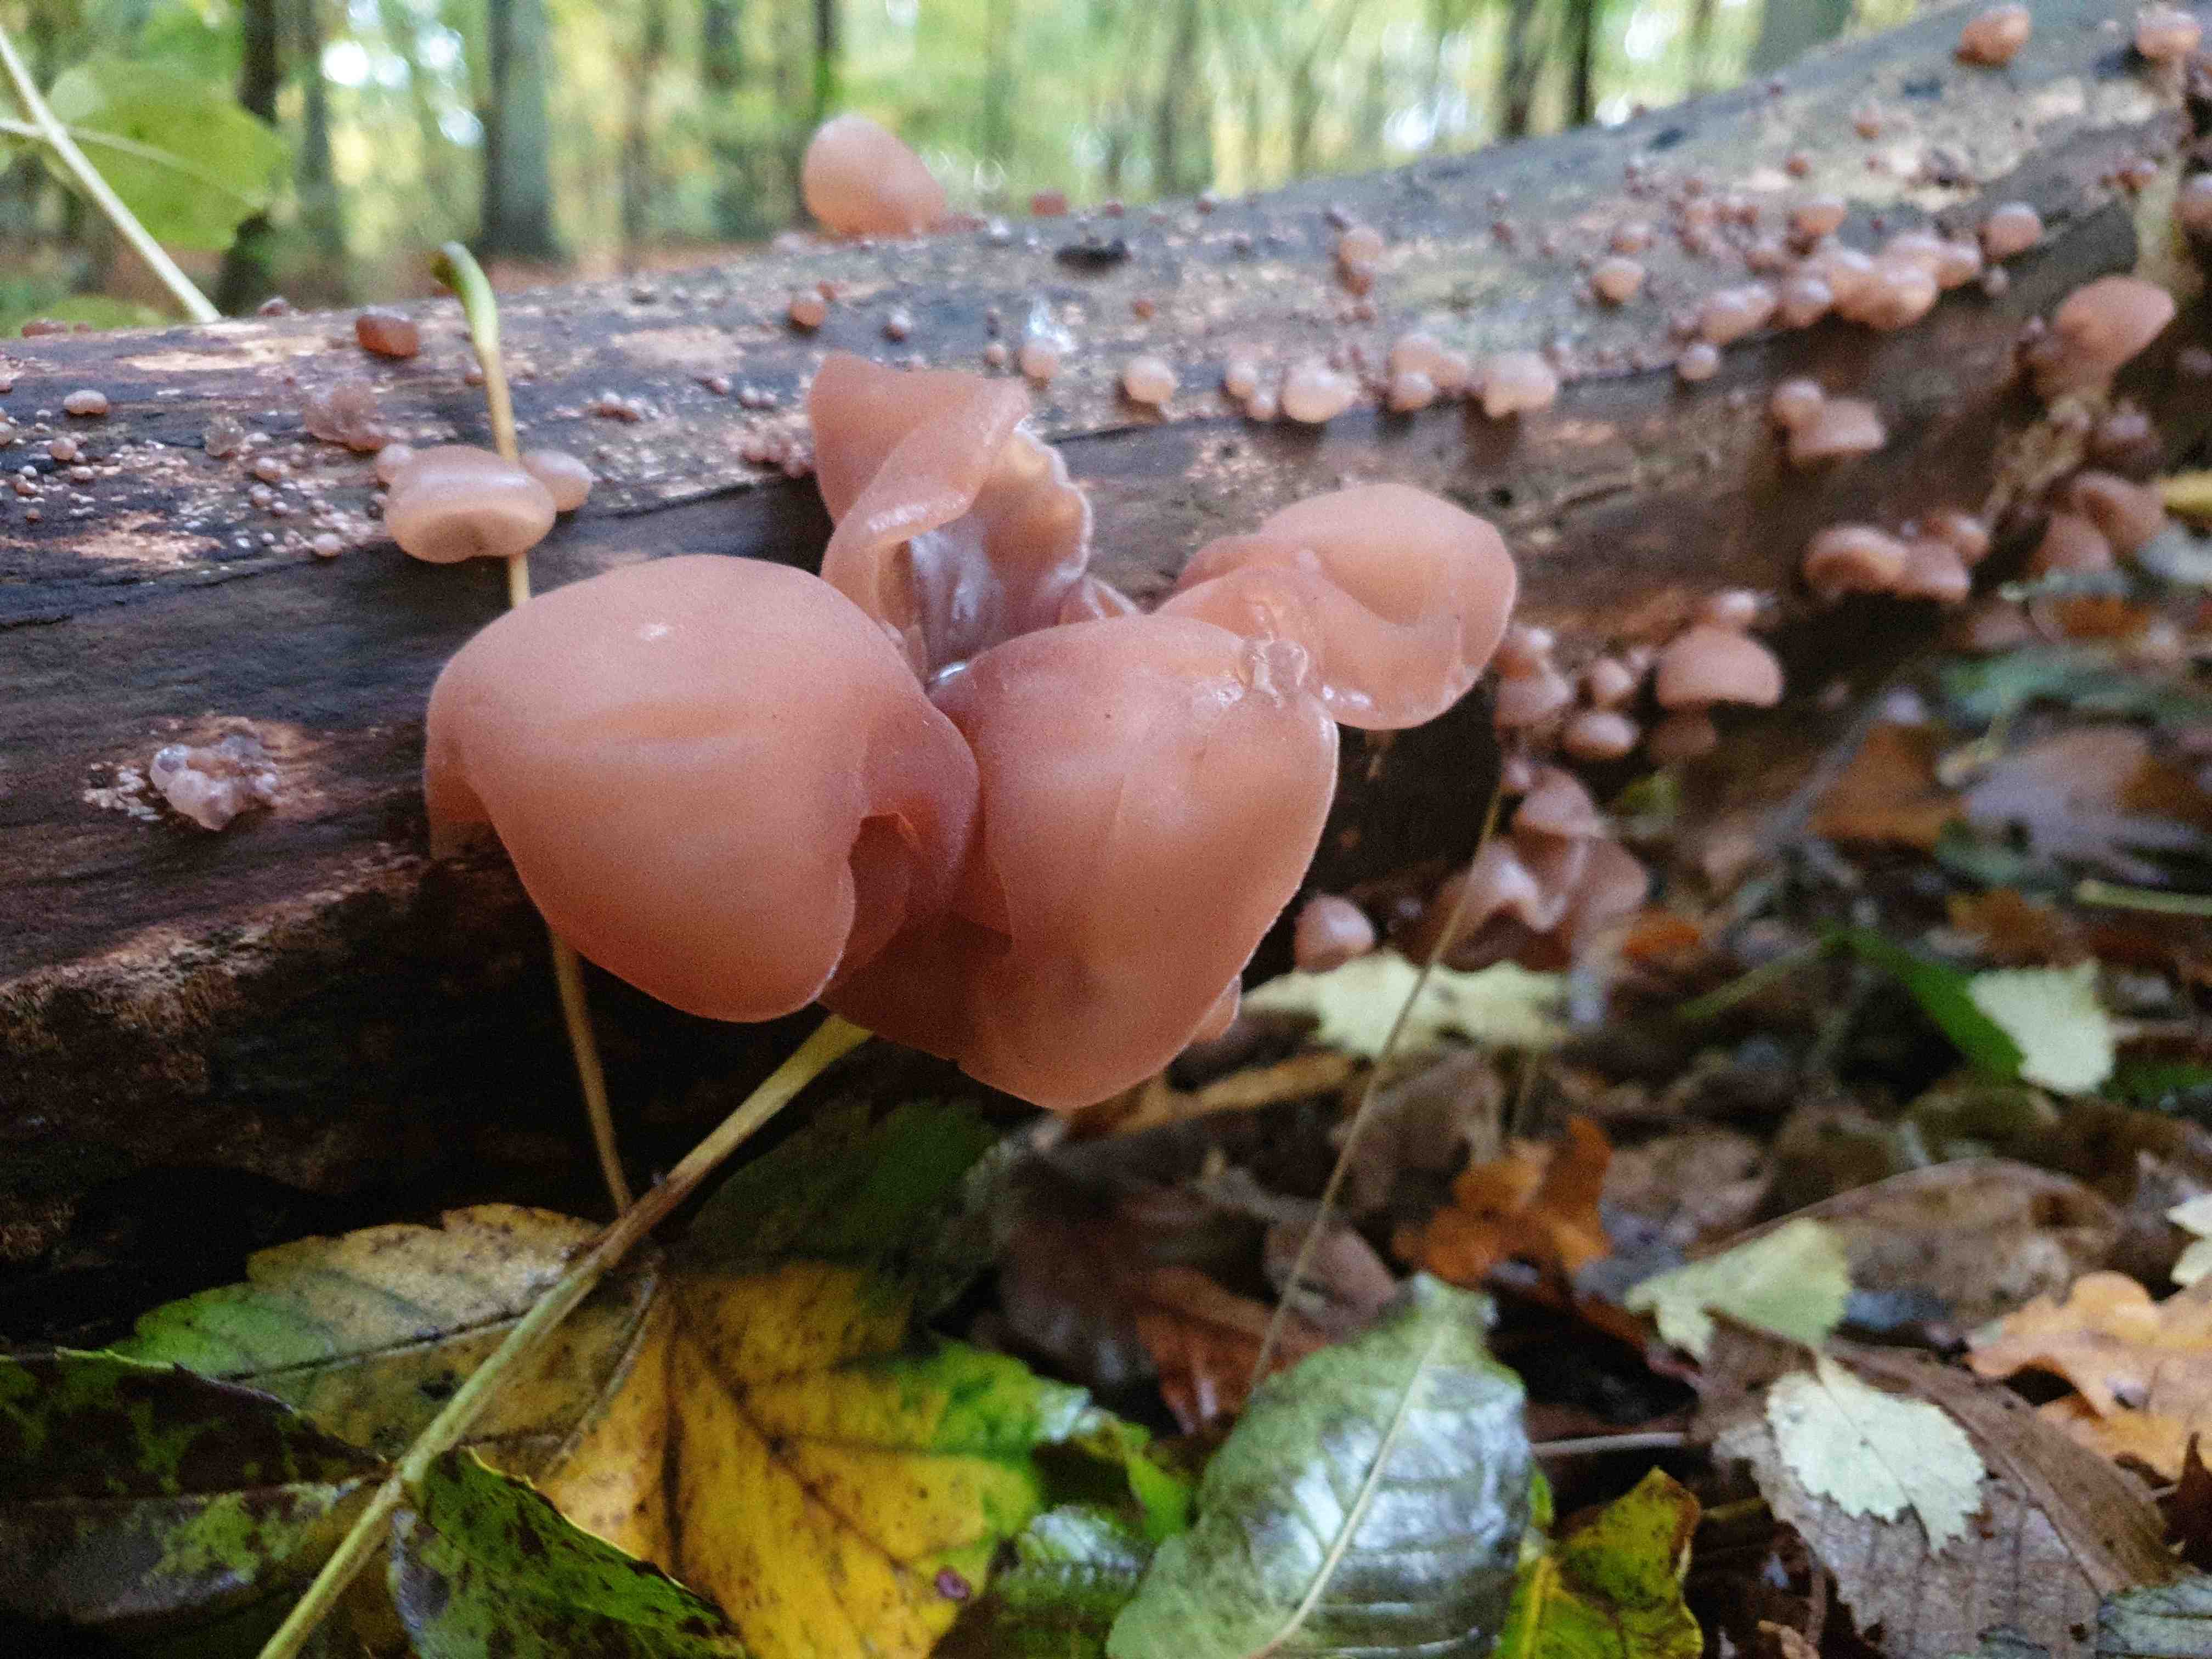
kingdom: Fungi
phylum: Basidiomycota
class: Agaricomycetes
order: Auriculariales
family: Auriculariaceae
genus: Auricularia
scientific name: Auricularia auricula-judae
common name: almindelig judasøre
